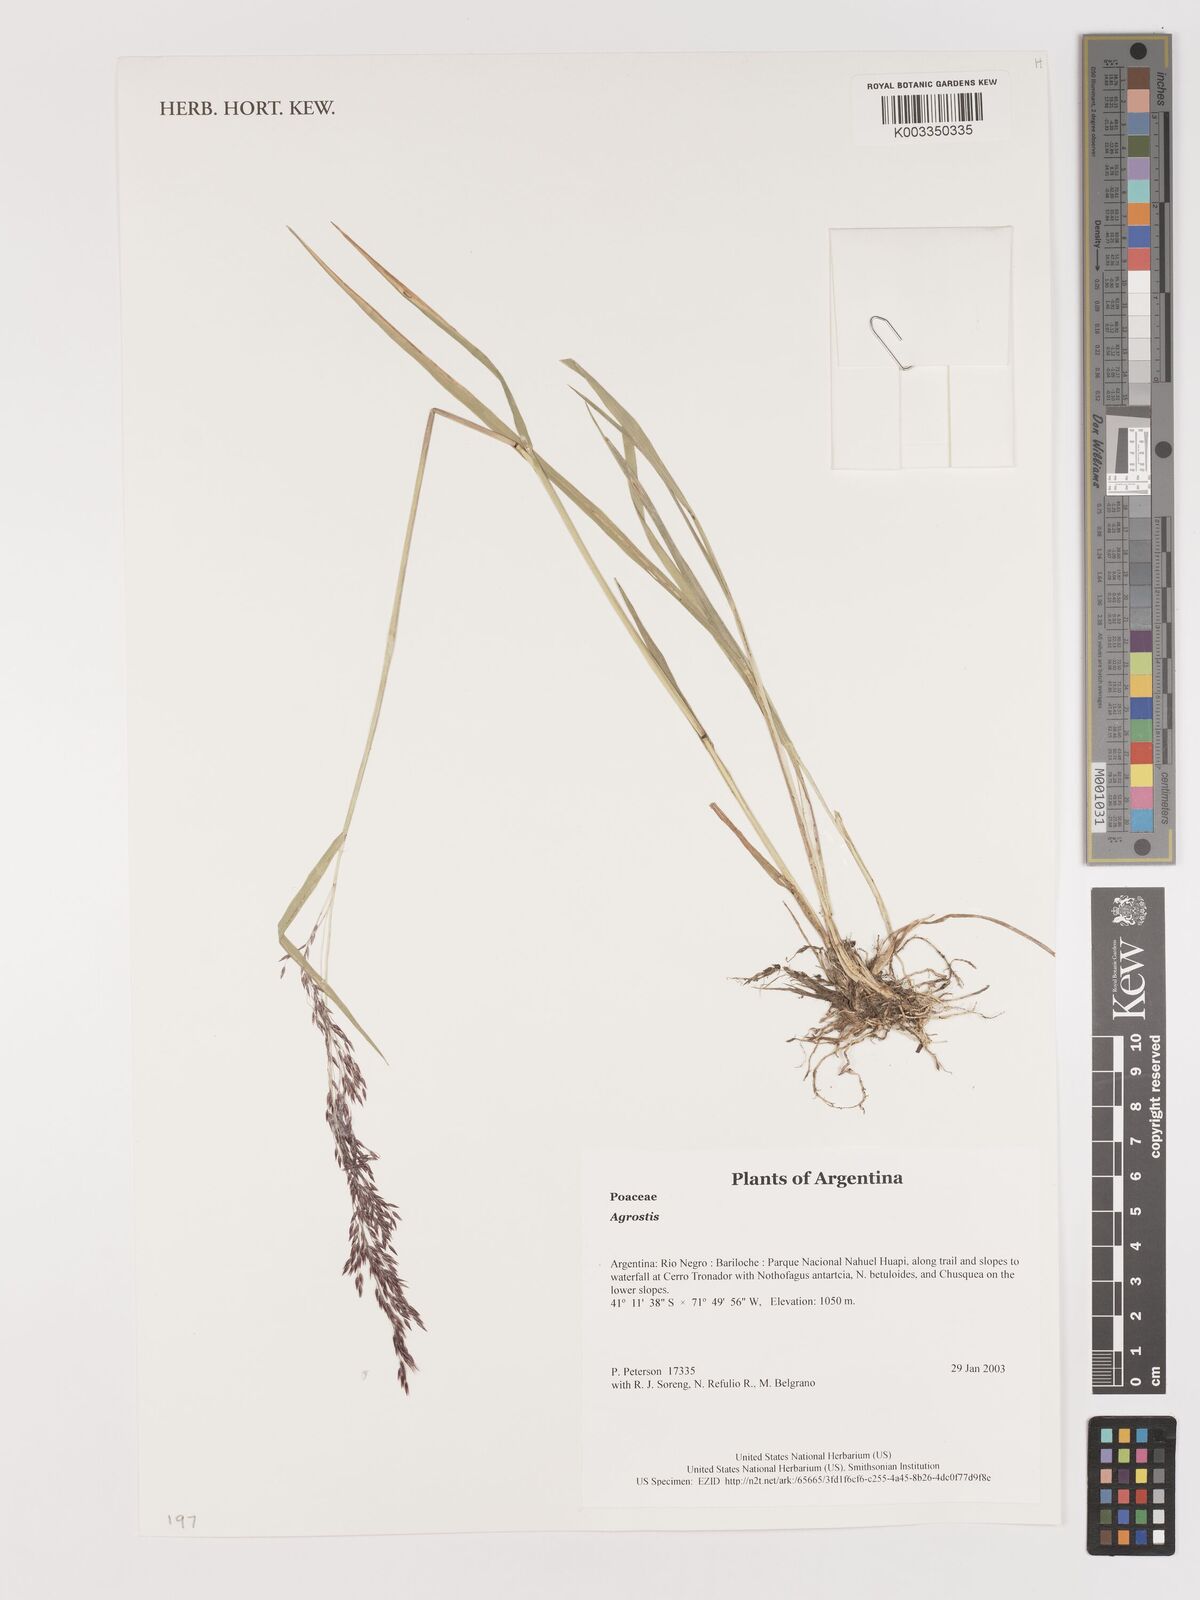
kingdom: Plantae
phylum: Tracheophyta
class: Liliopsida
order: Poales
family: Poaceae
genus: Agrostis
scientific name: Agrostis
